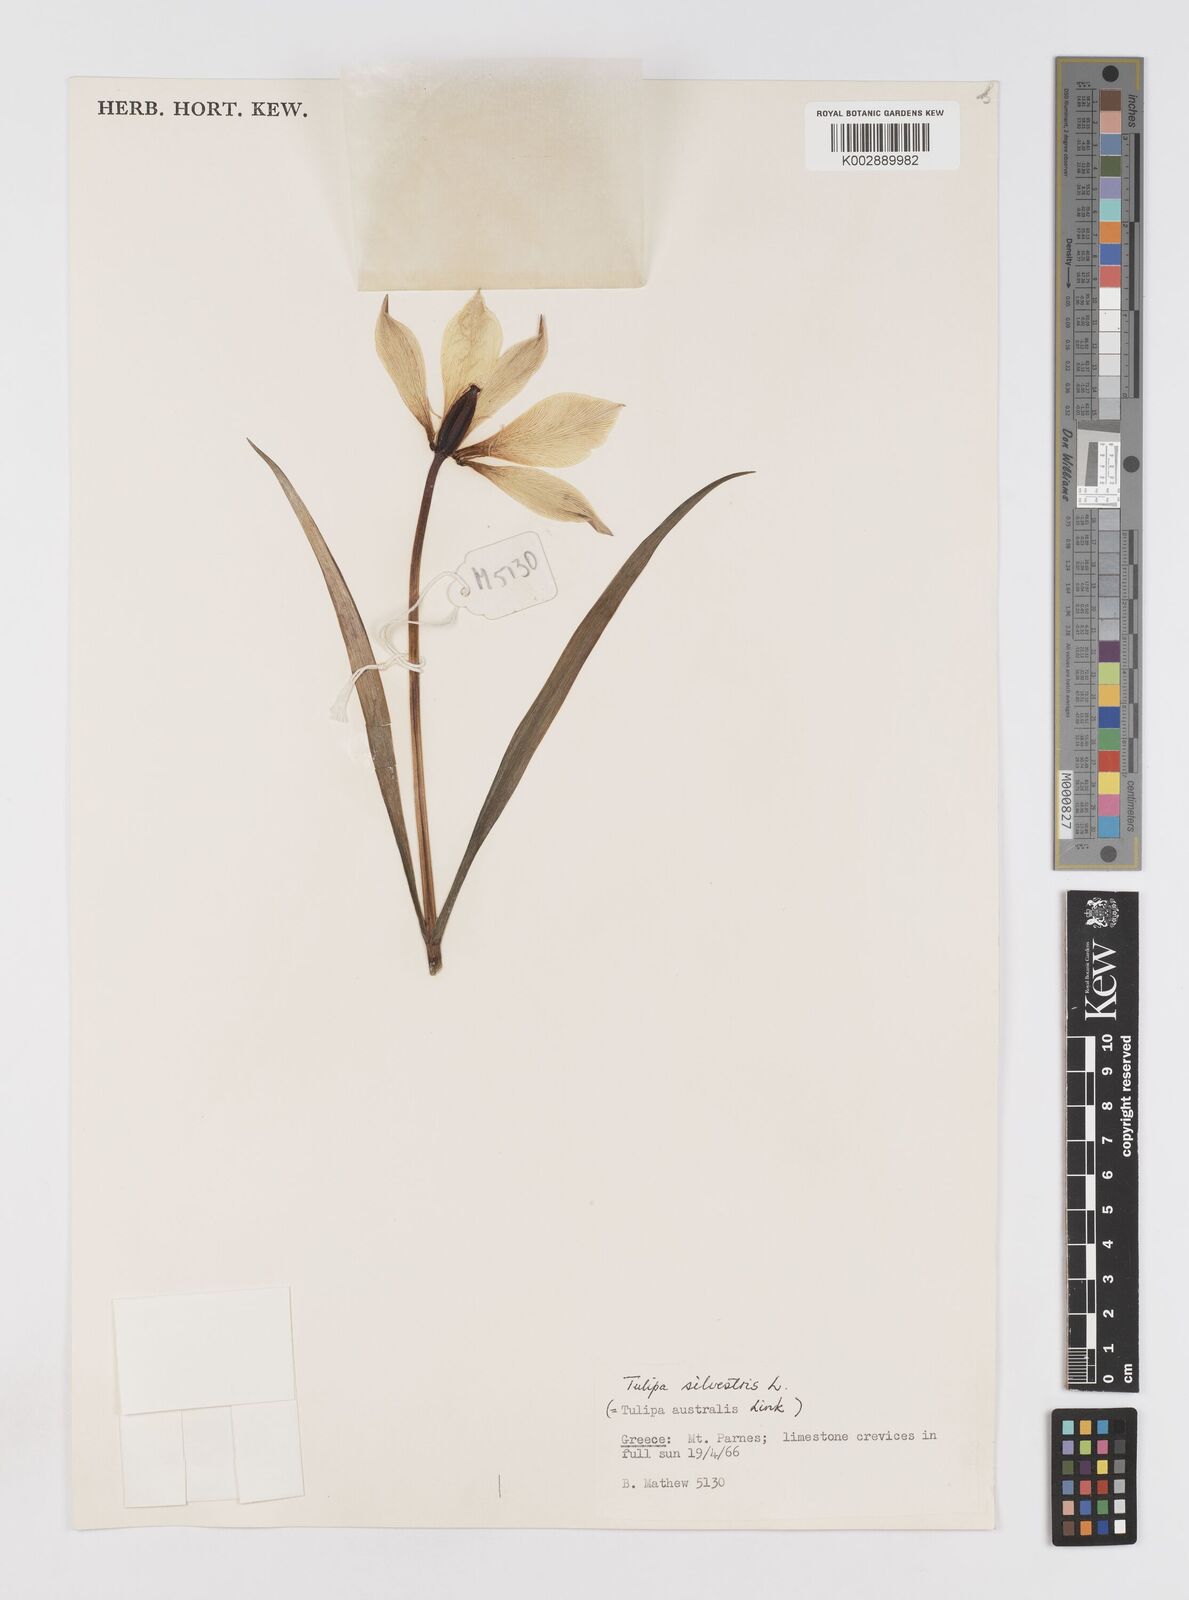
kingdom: Plantae
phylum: Tracheophyta
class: Liliopsida
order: Liliales
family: Liliaceae
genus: Tulipa
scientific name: Tulipa sylvestris
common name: Wild tulip
